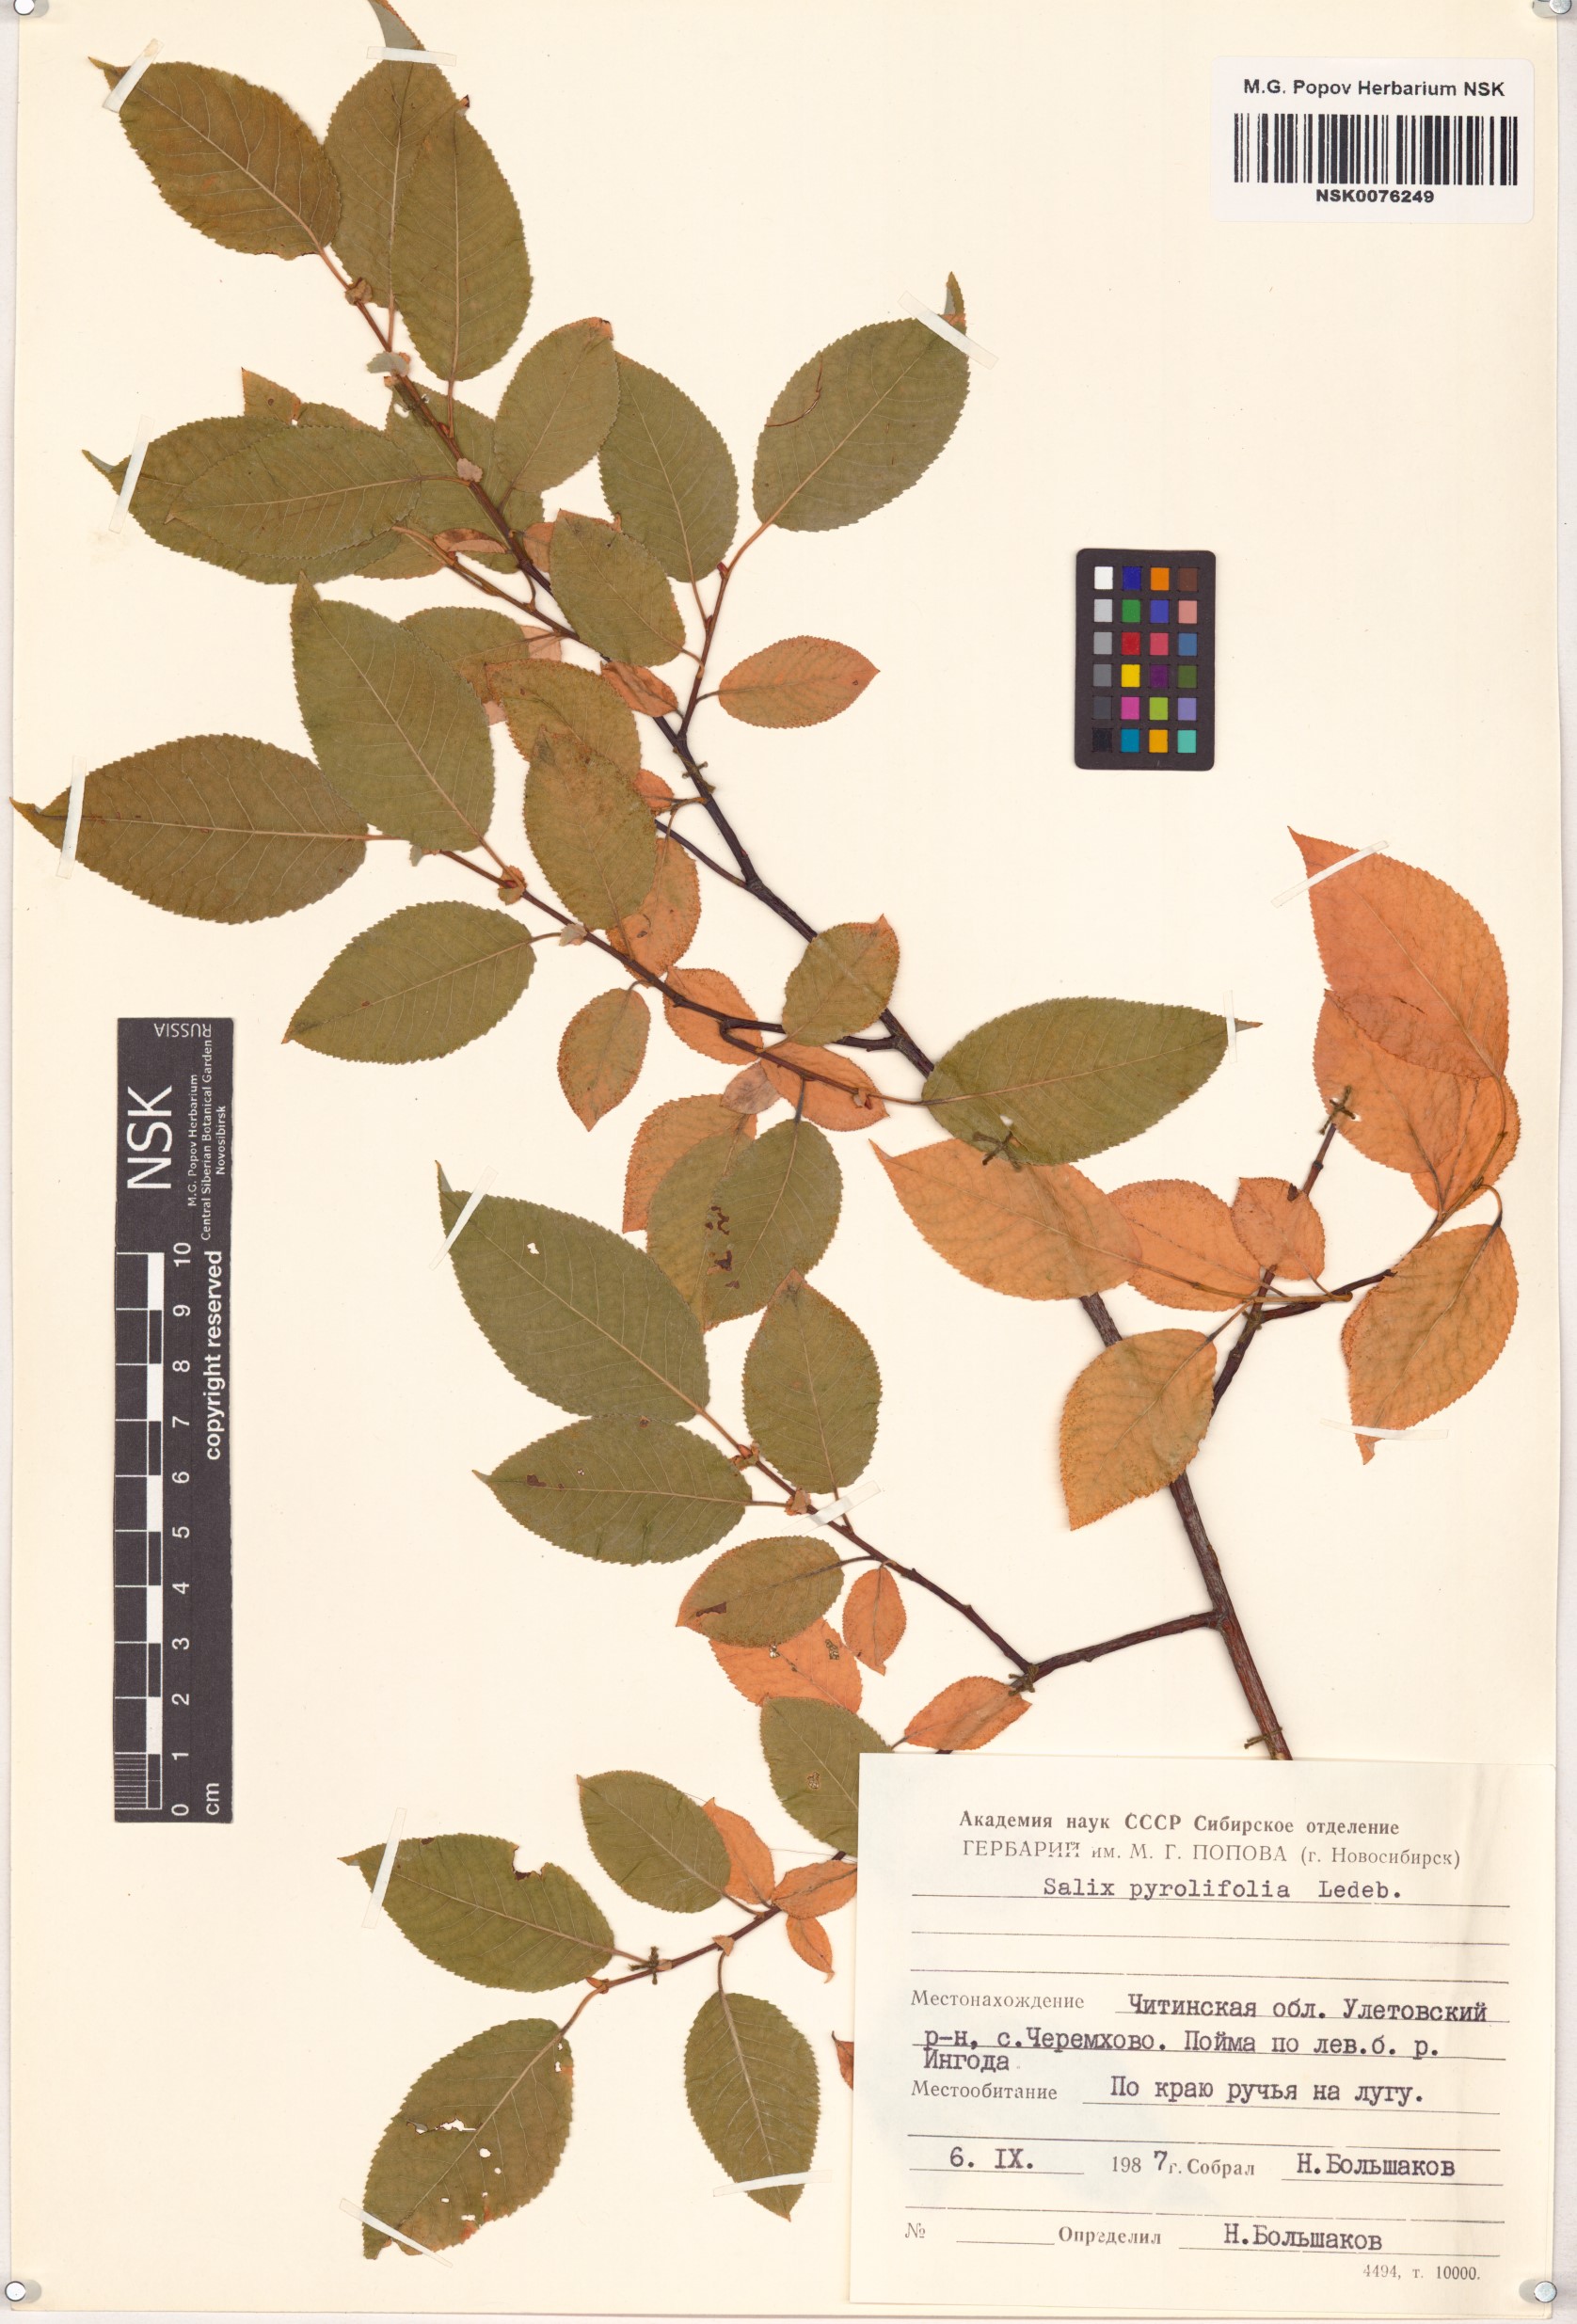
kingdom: Plantae
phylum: Tracheophyta
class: Magnoliopsida
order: Malpighiales
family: Salicaceae
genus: Salix
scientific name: Salix pyrolifolia
